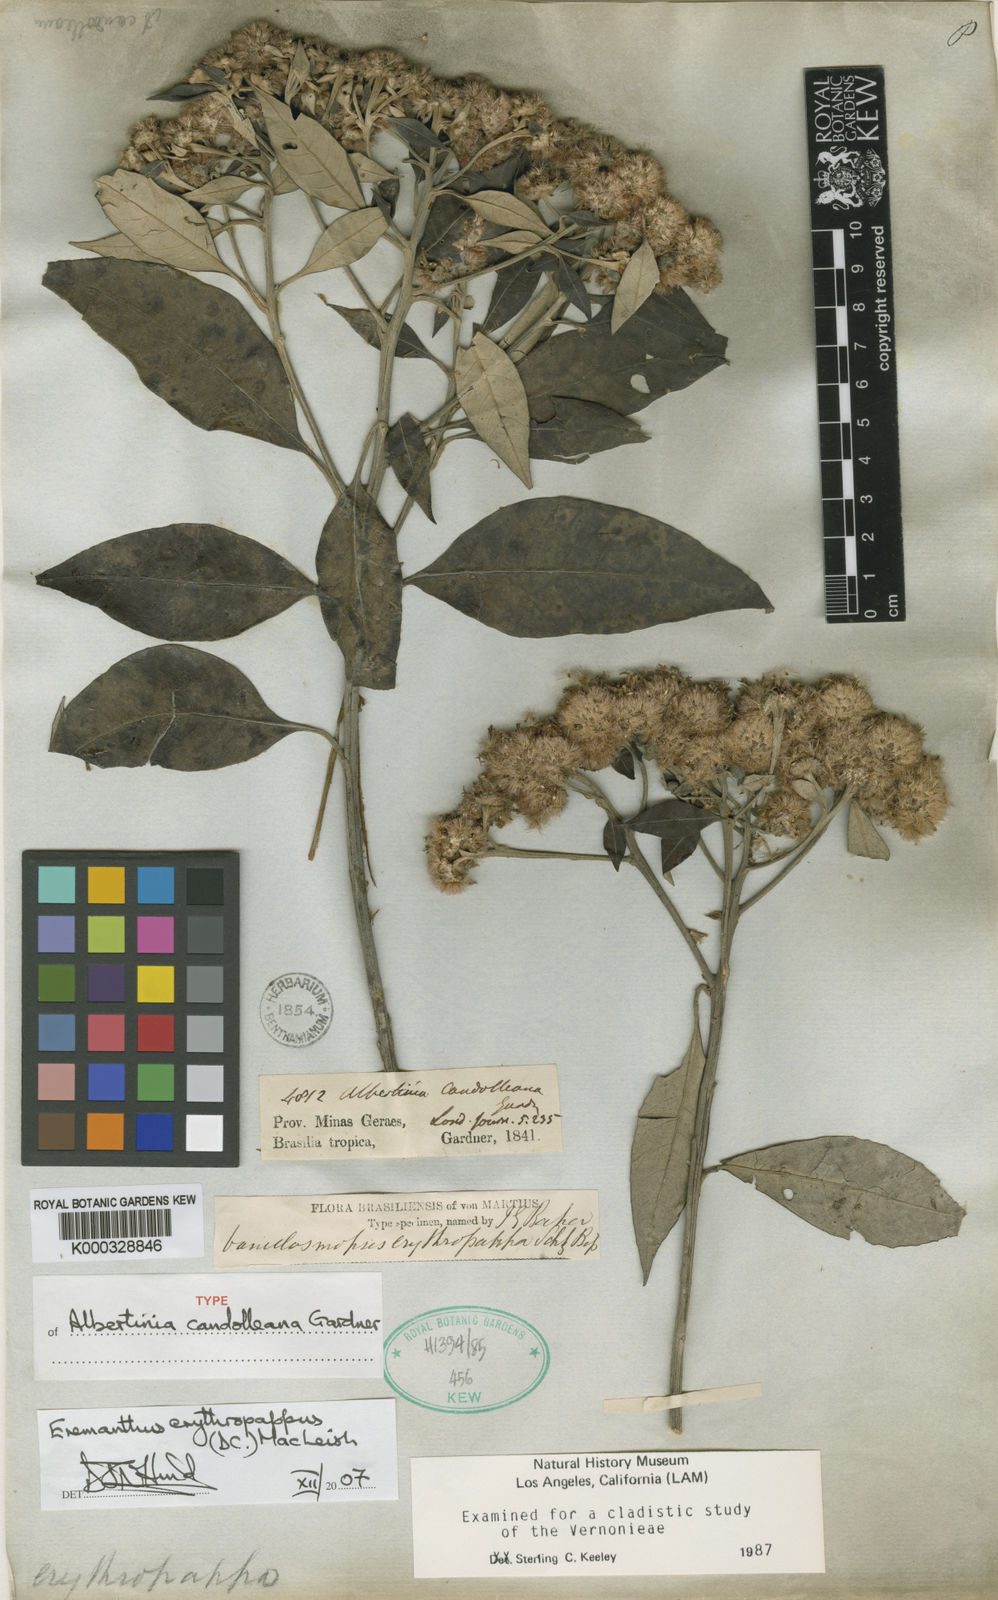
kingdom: Plantae
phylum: Tracheophyta
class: Magnoliopsida
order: Asterales
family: Asteraceae
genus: Eremanthus
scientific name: Eremanthus erythropappus
